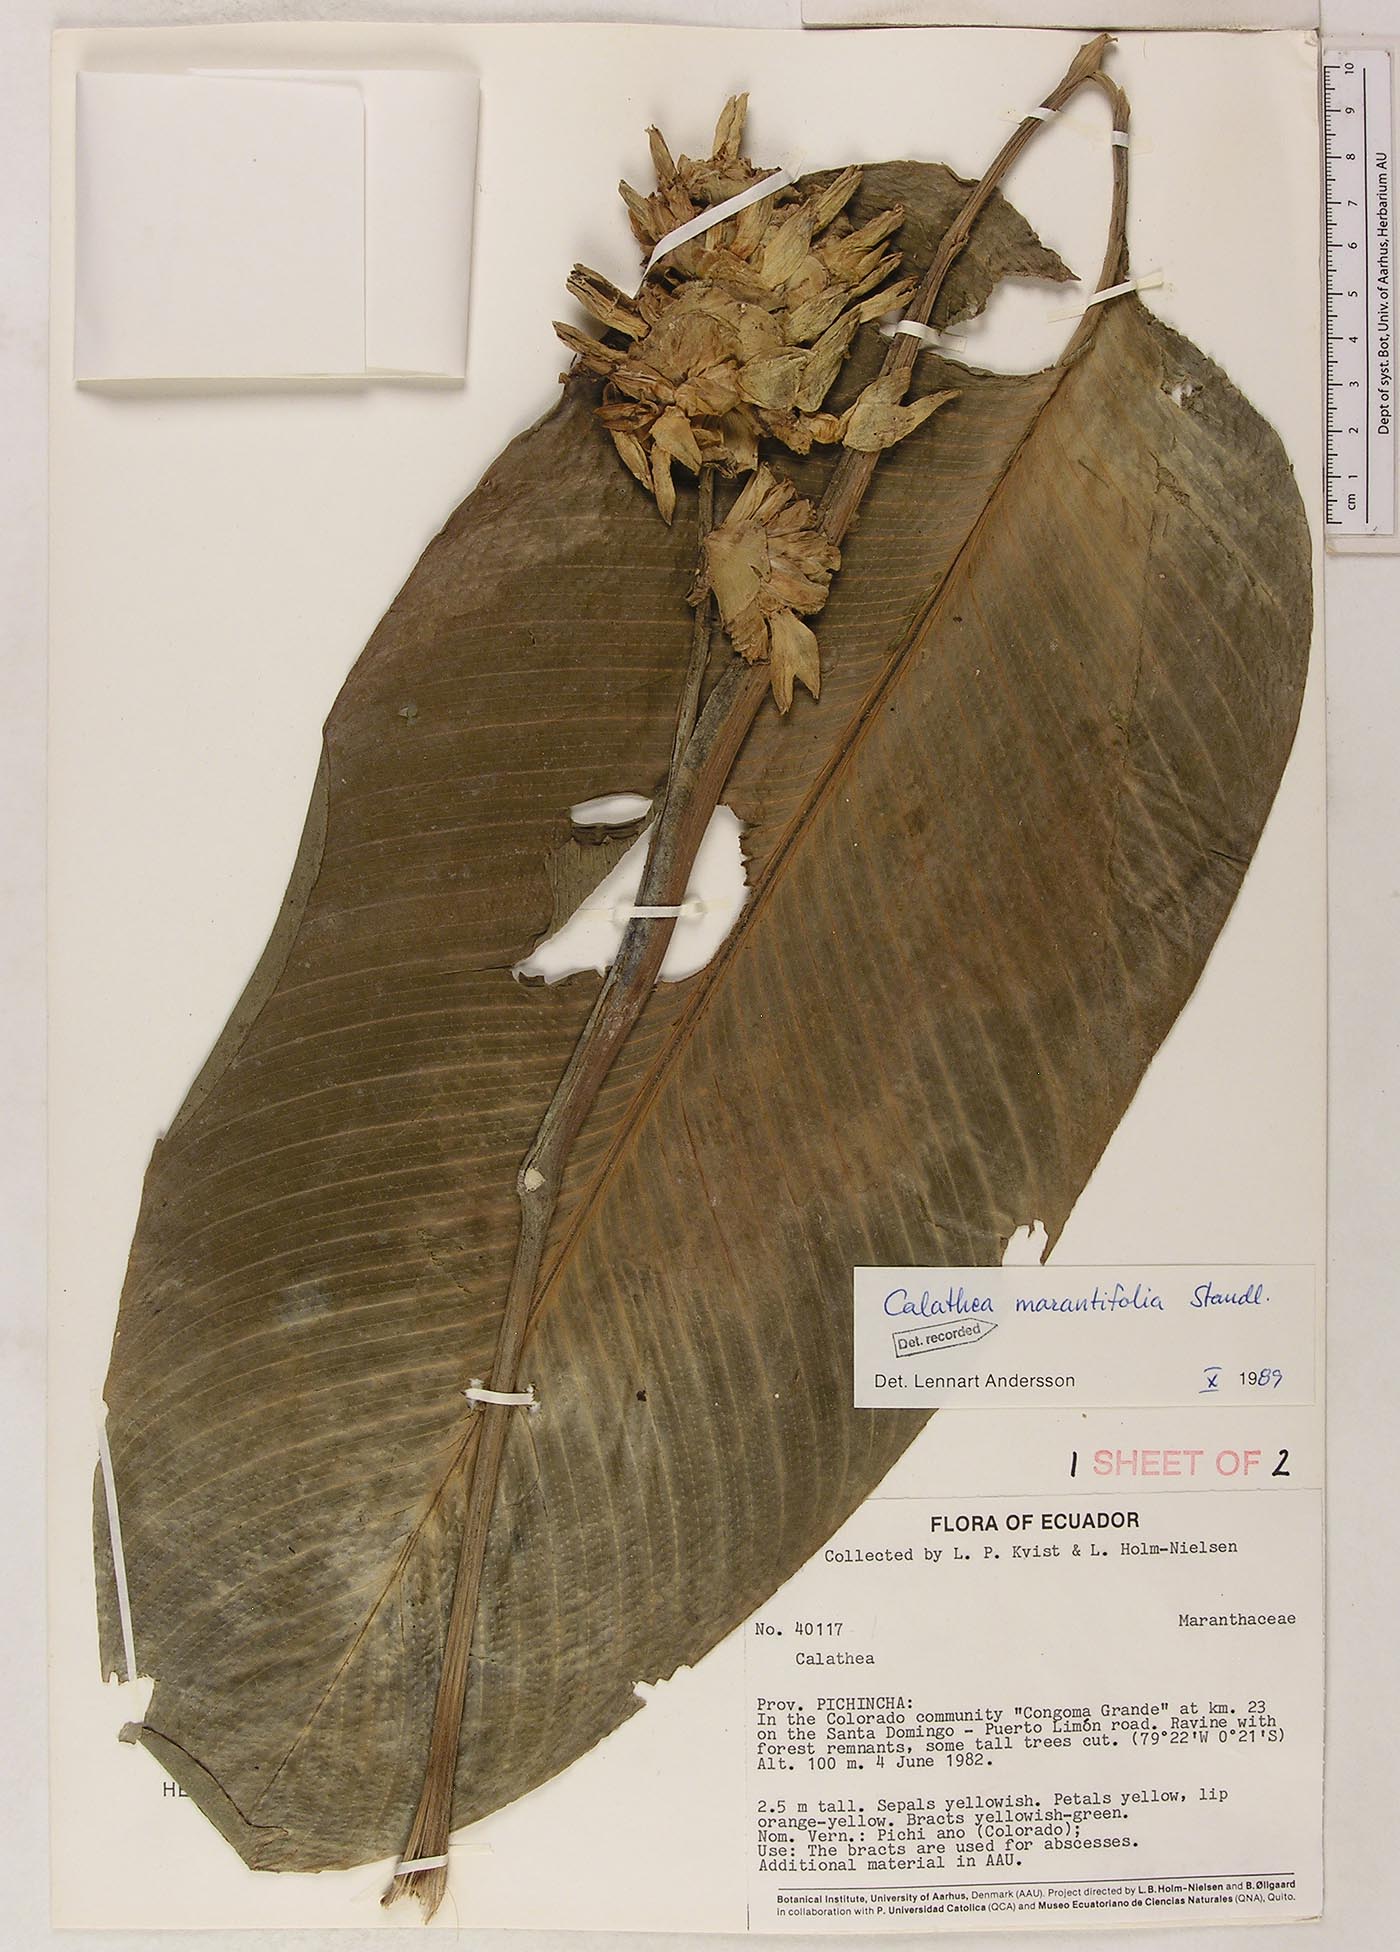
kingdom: Plantae
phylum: Tracheophyta
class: Liliopsida
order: Zingiberales
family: Marantaceae
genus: Goeppertia
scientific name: Goeppertia marantifolia
